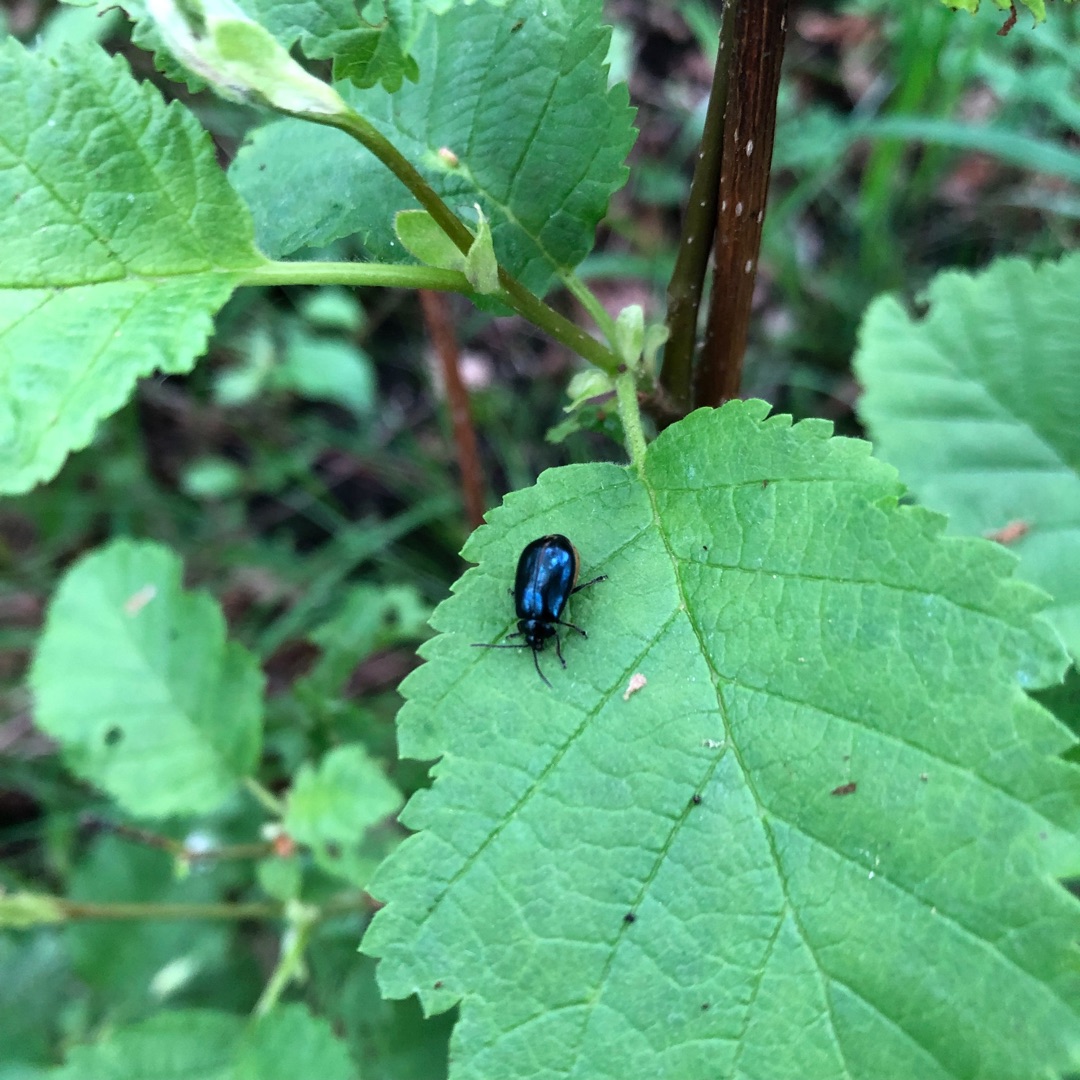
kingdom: Animalia
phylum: Arthropoda
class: Insecta
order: Coleoptera
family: Chrysomelidae
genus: Agelastica
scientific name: Agelastica alni
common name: Ellebladbille
